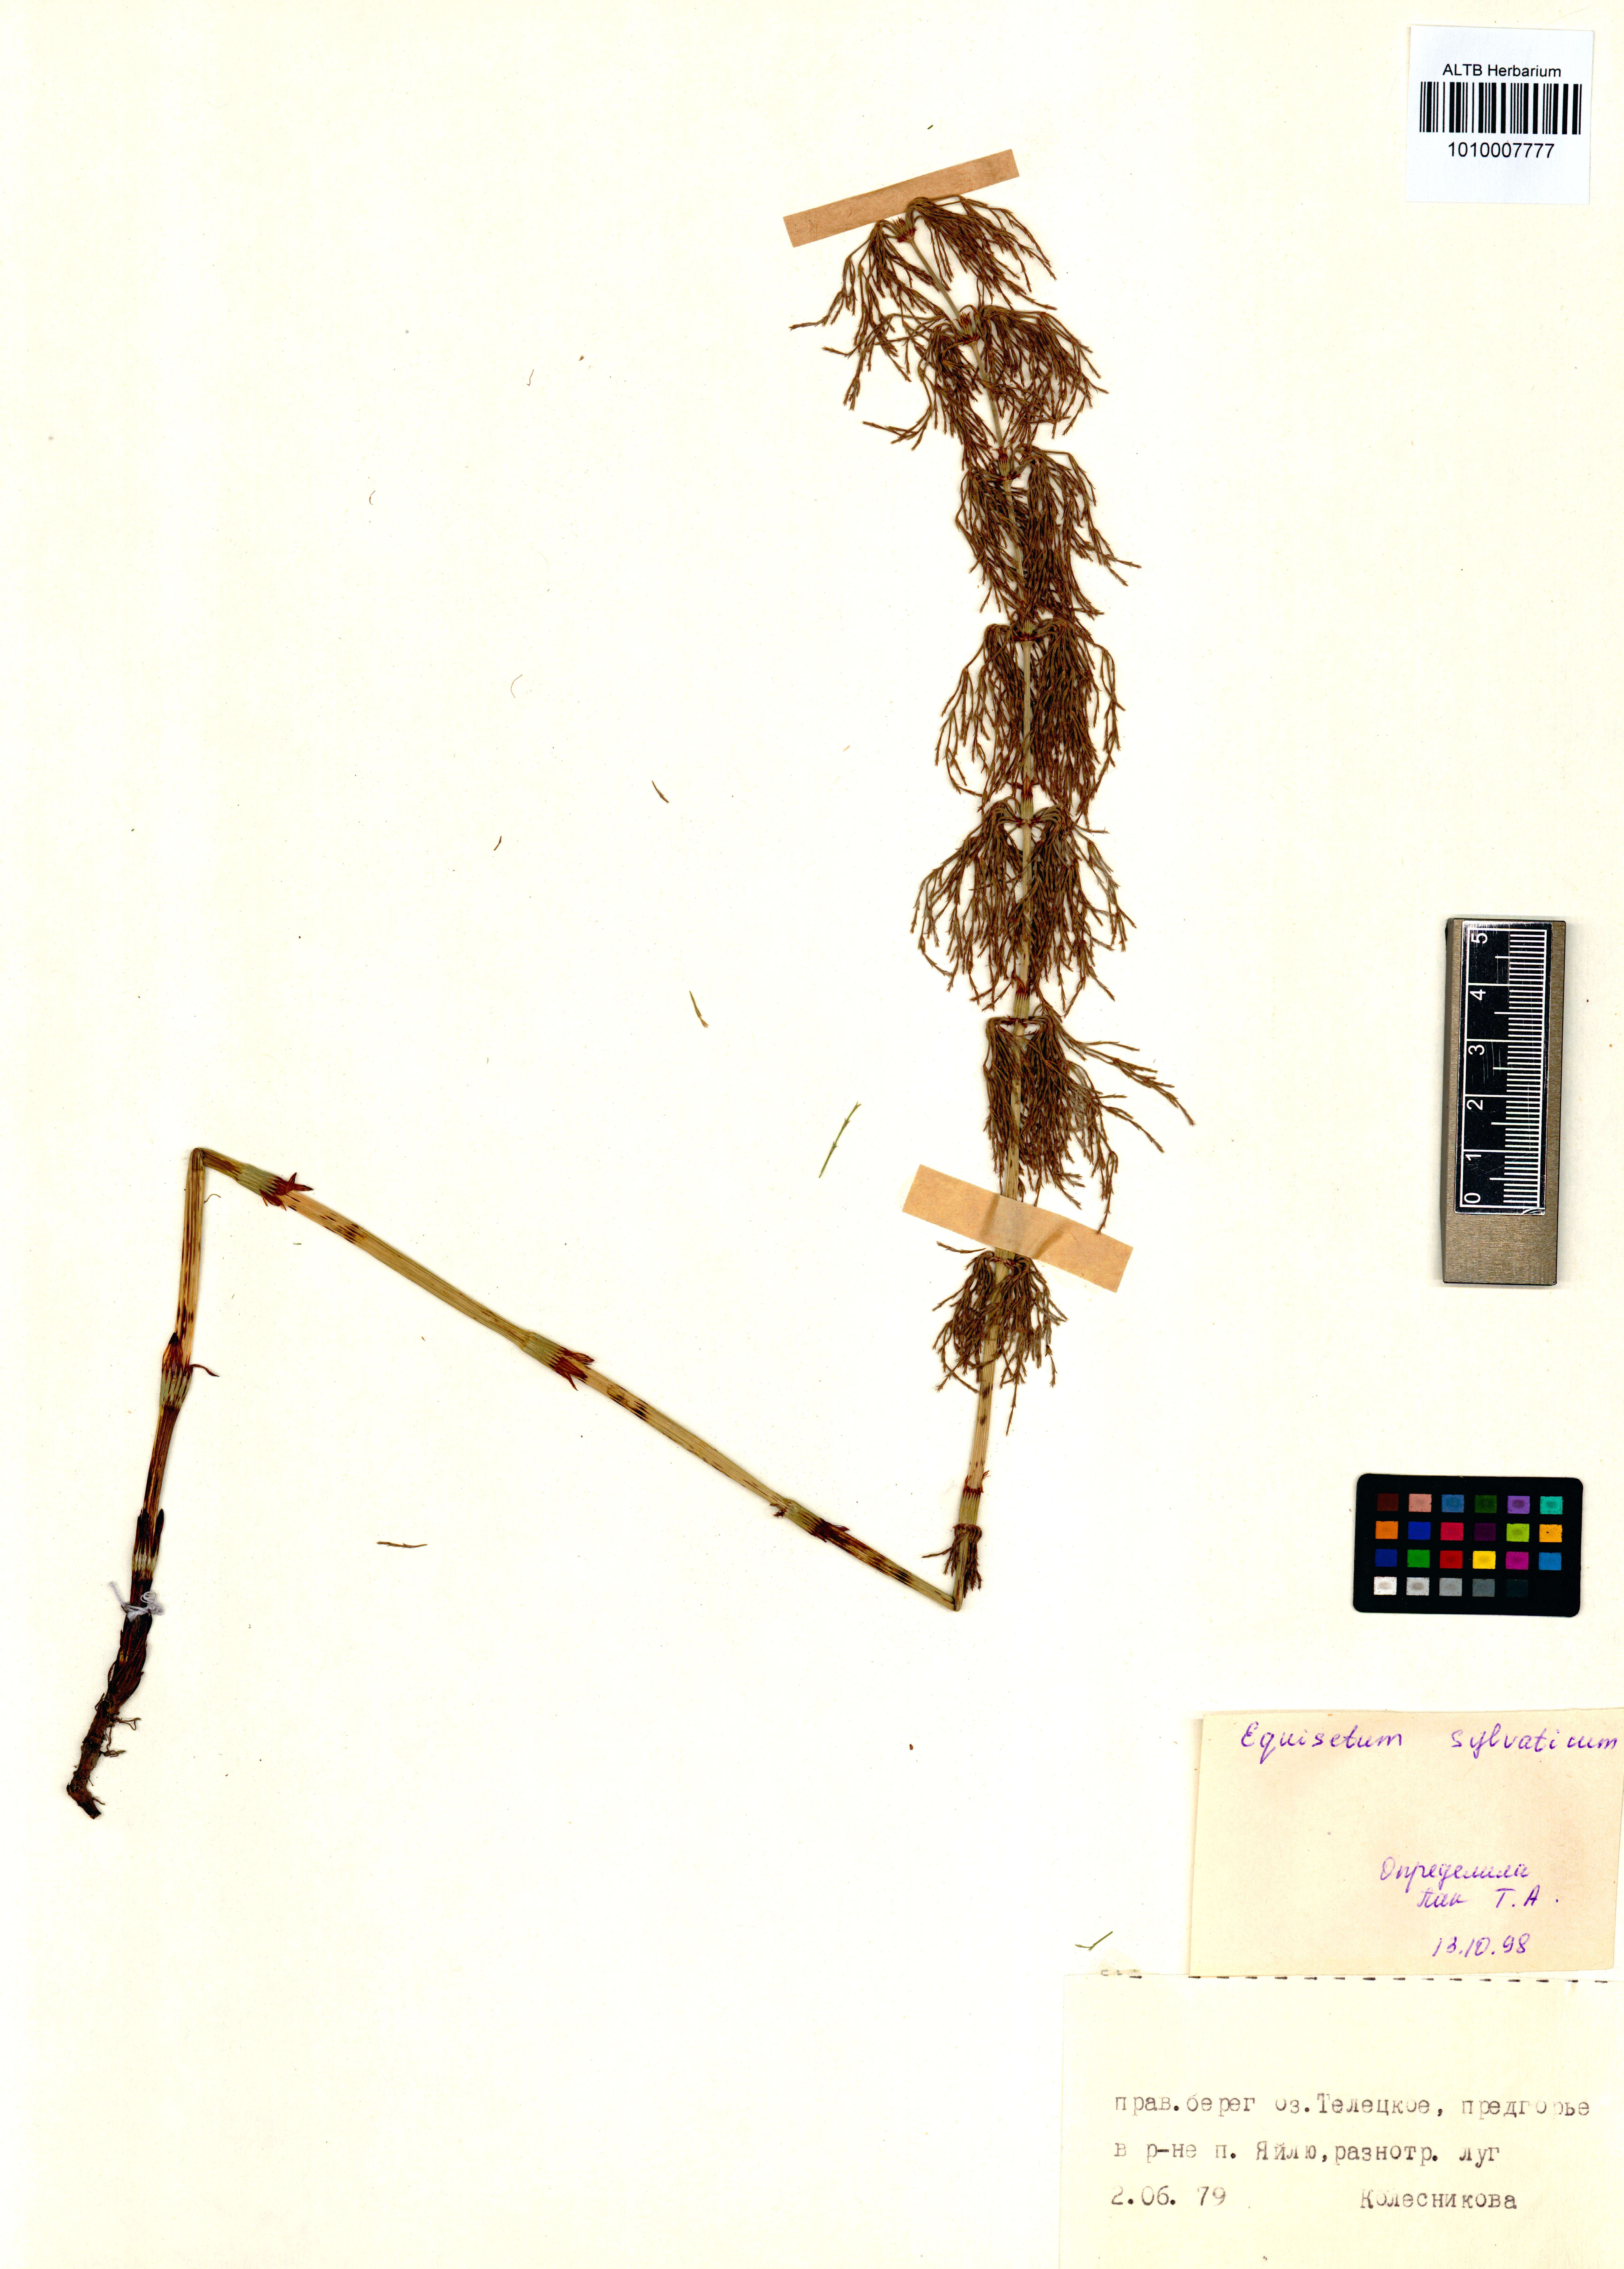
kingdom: Plantae
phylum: Tracheophyta
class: Polypodiopsida
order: Equisetales
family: Equisetaceae
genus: Equisetum
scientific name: Equisetum sylvaticum
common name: Wood horsetail
